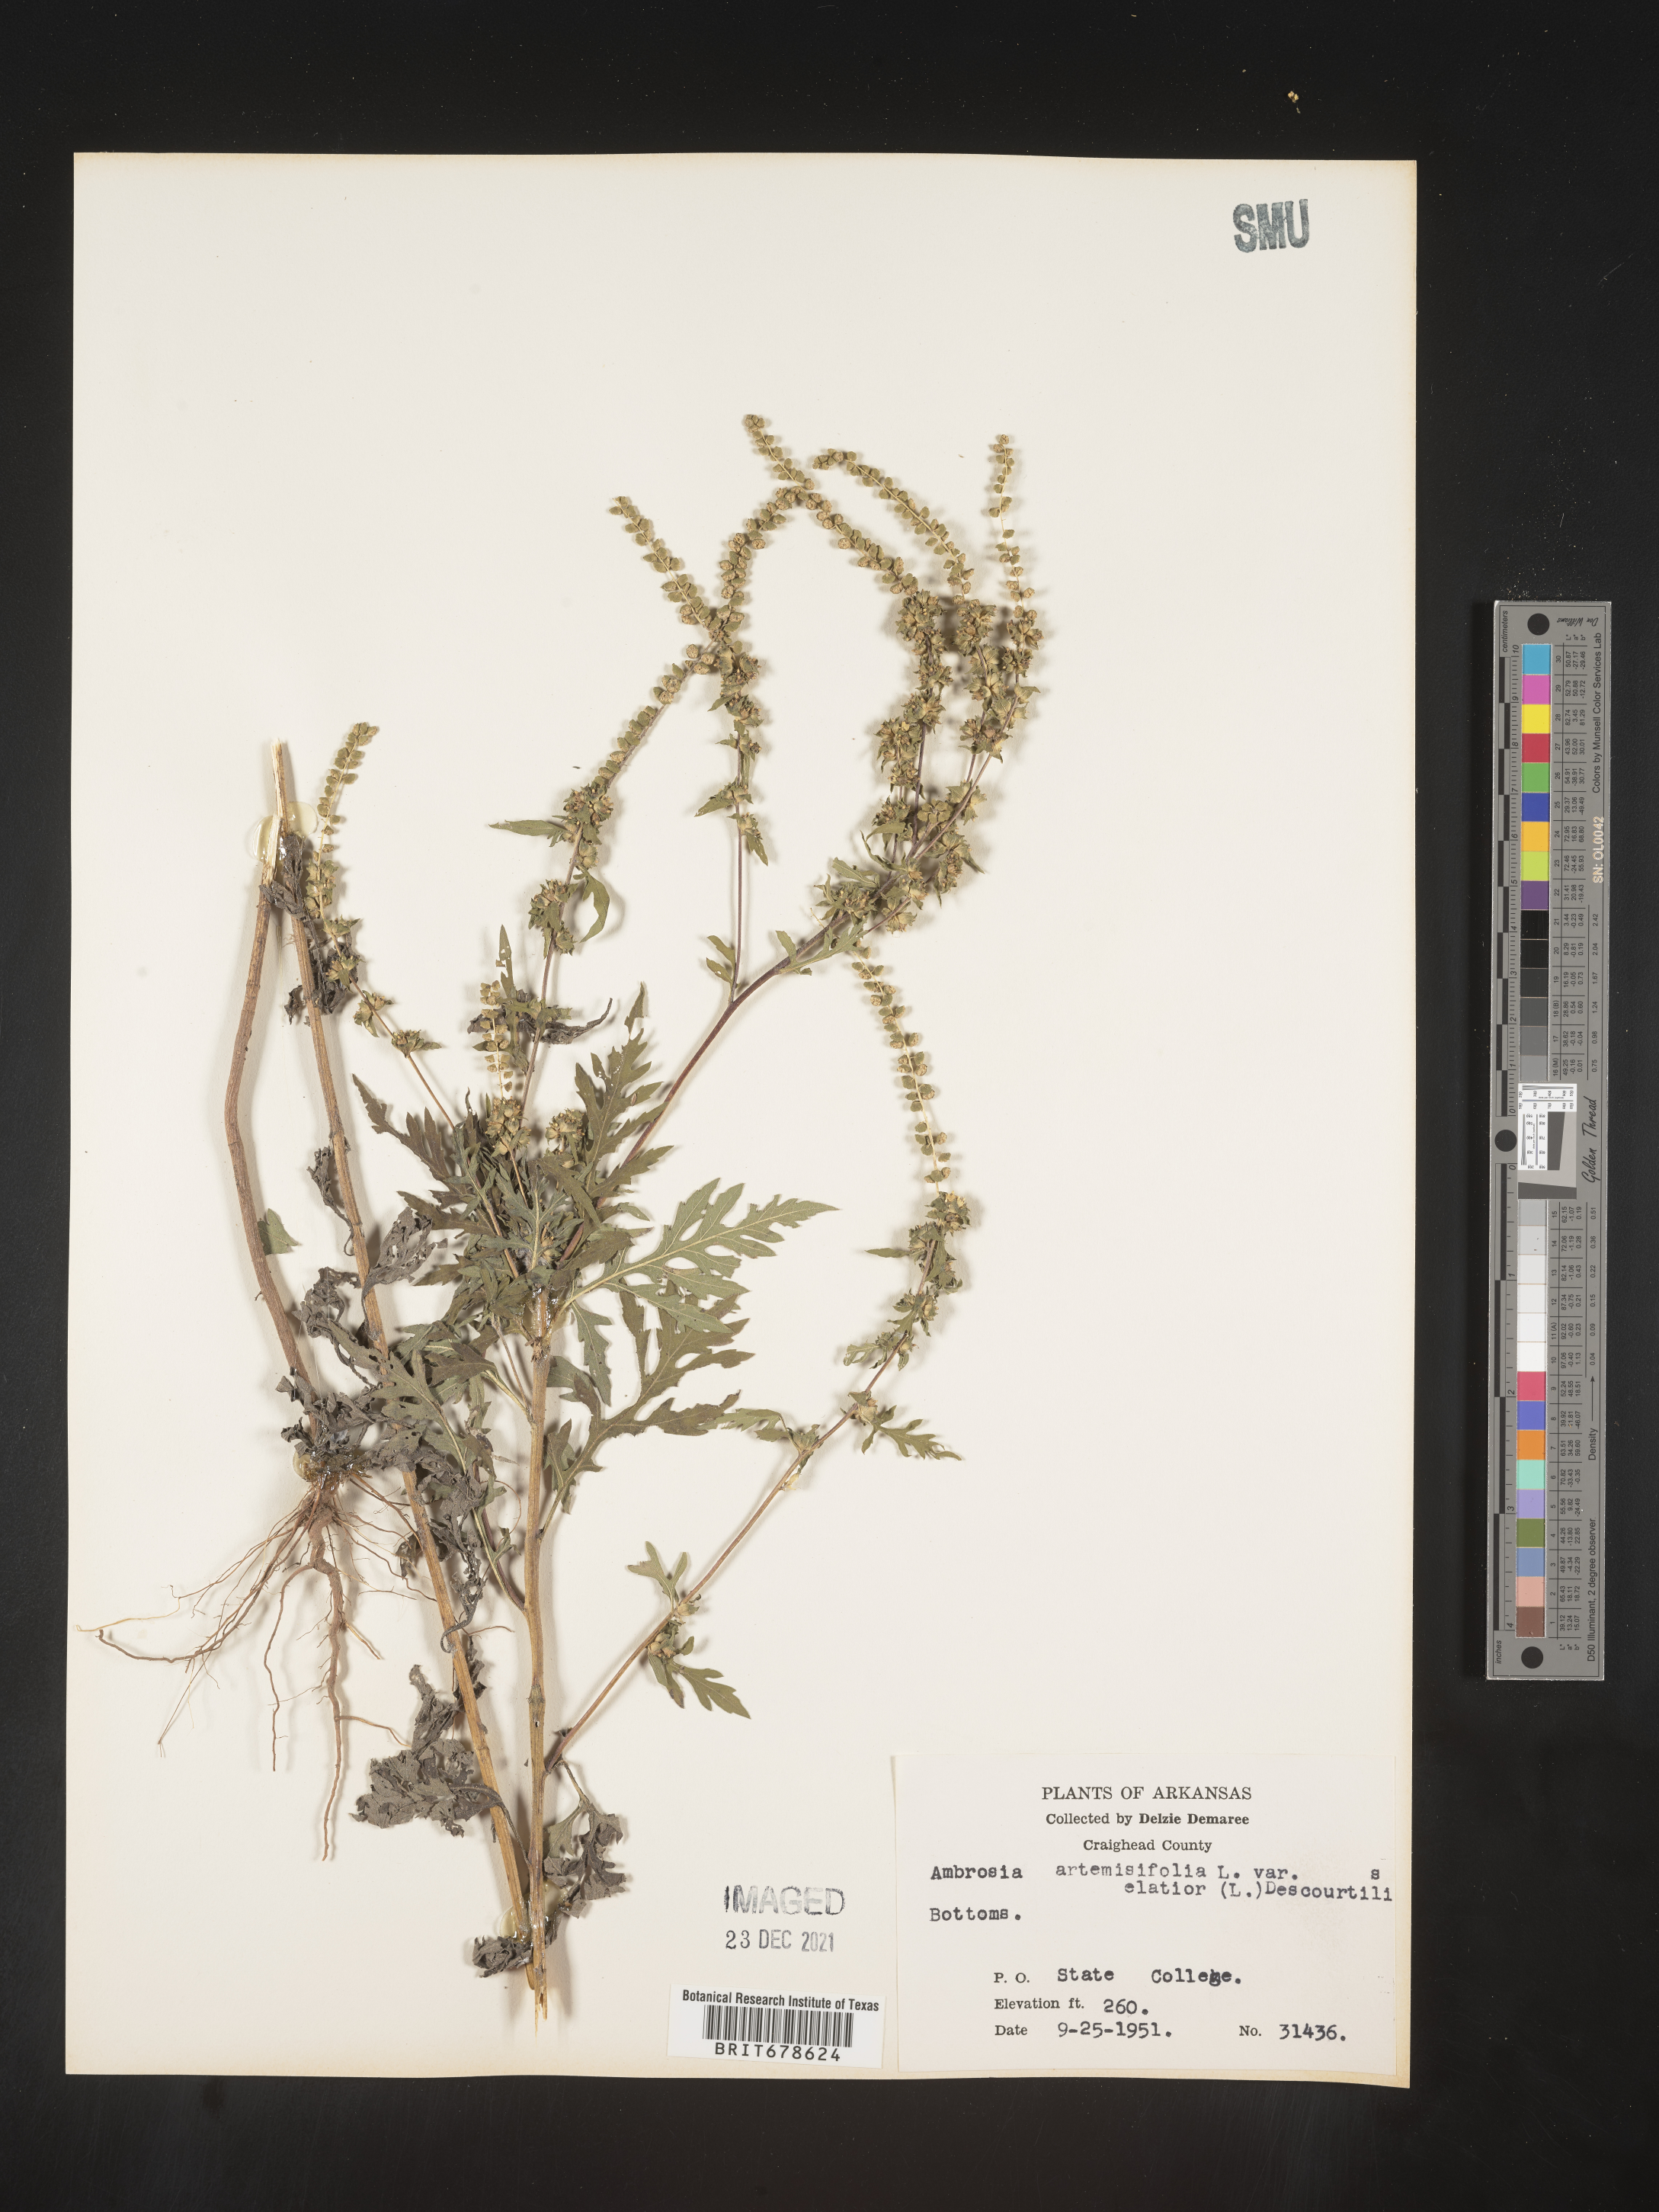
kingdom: Plantae
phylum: Tracheophyta
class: Magnoliopsida
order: Asterales
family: Asteraceae
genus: Ambrosia
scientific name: Ambrosia polystachya
